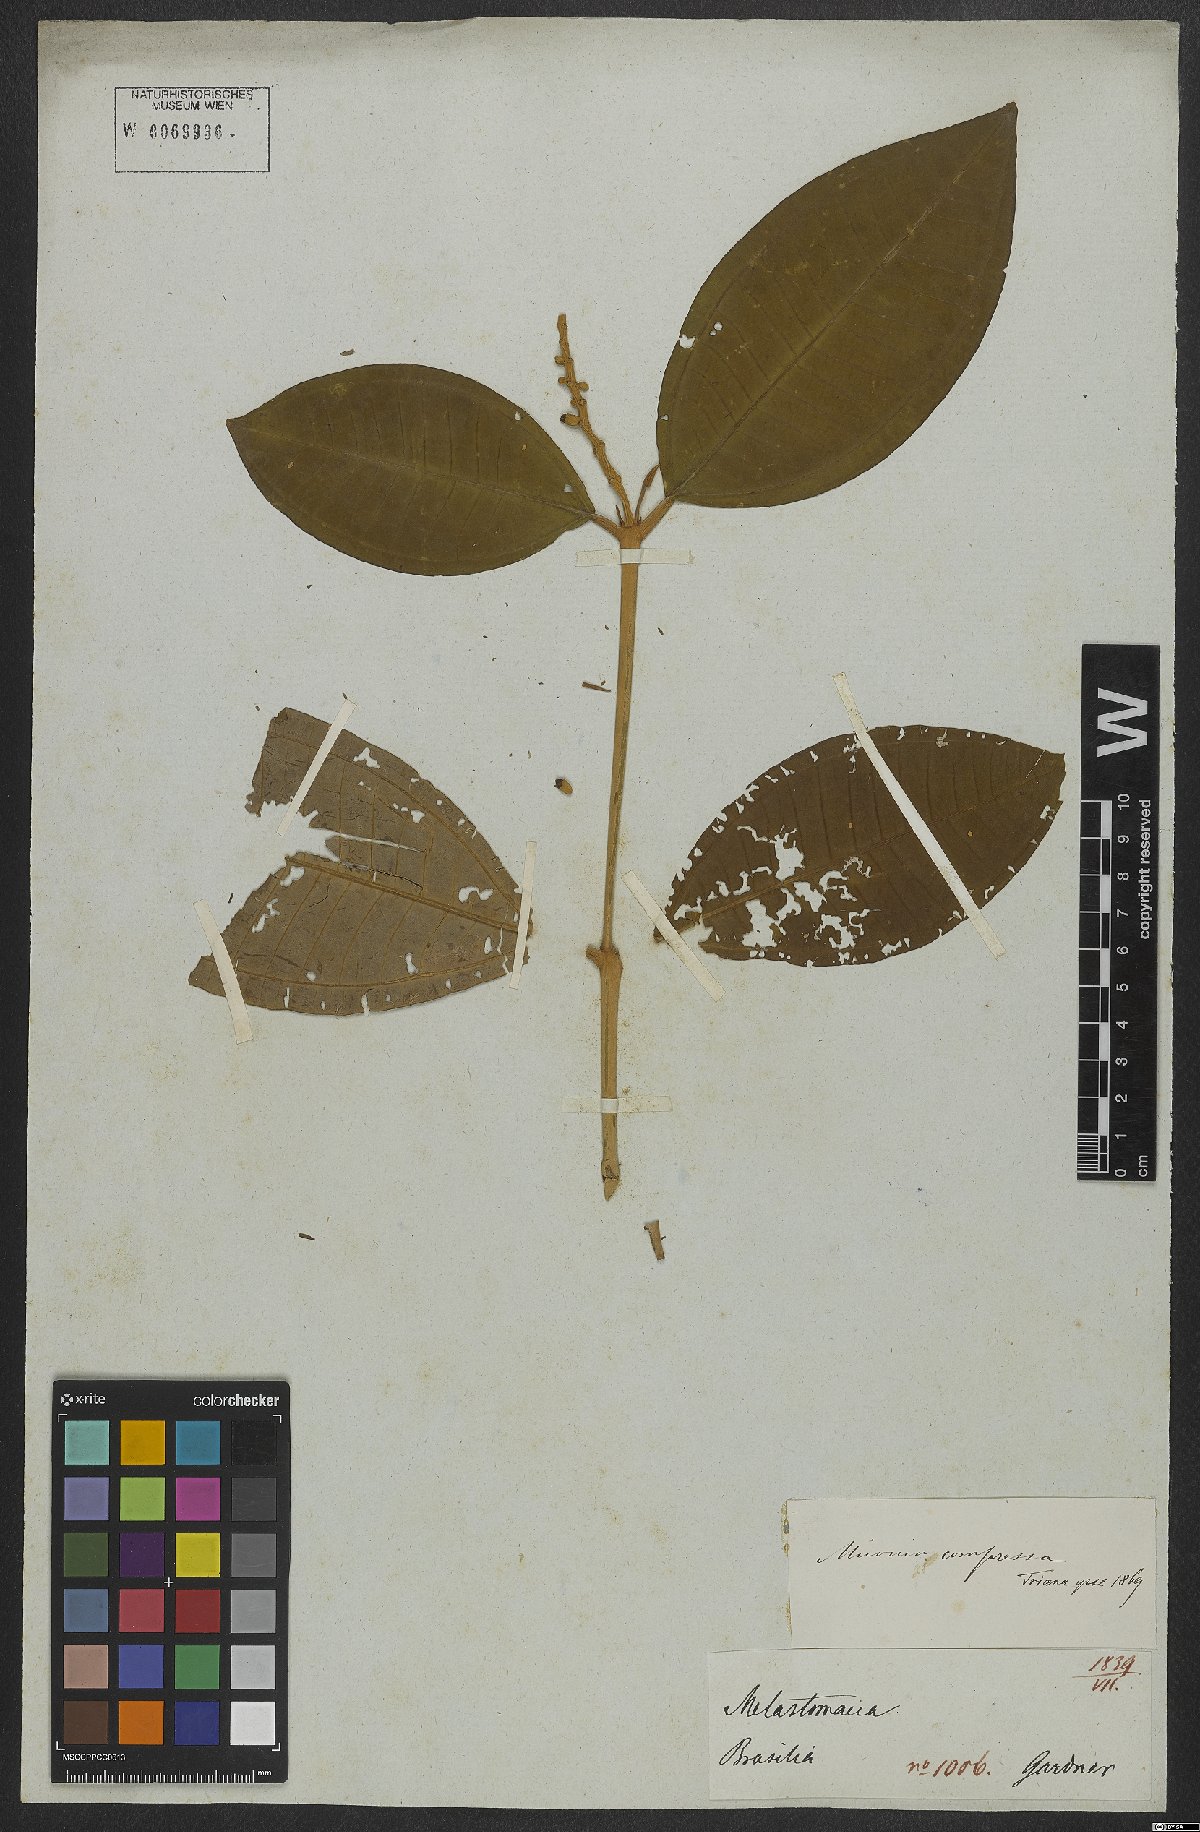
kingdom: Plantae
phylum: Tracheophyta
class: Magnoliopsida
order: Myrtales
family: Melastomataceae
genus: Miconia
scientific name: Miconia compressa
